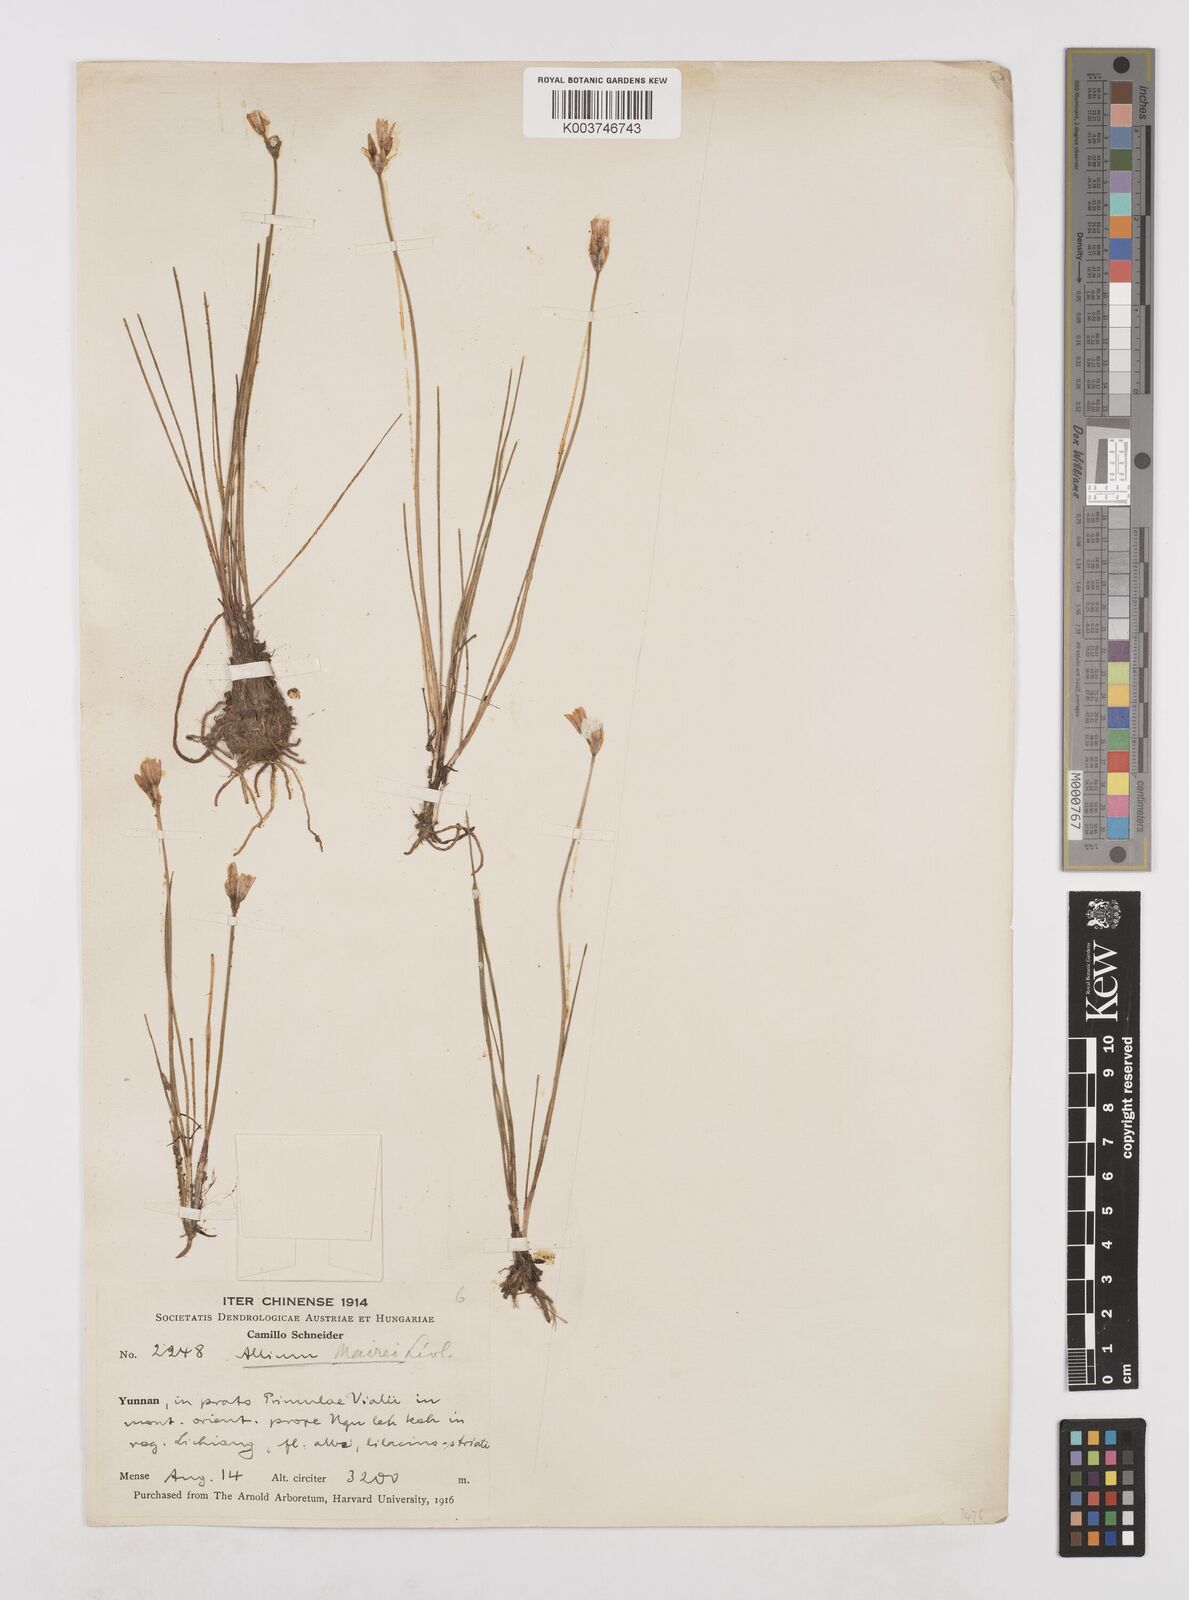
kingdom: Plantae
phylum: Tracheophyta
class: Liliopsida
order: Asparagales
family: Amaryllidaceae
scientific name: Amaryllidaceae
